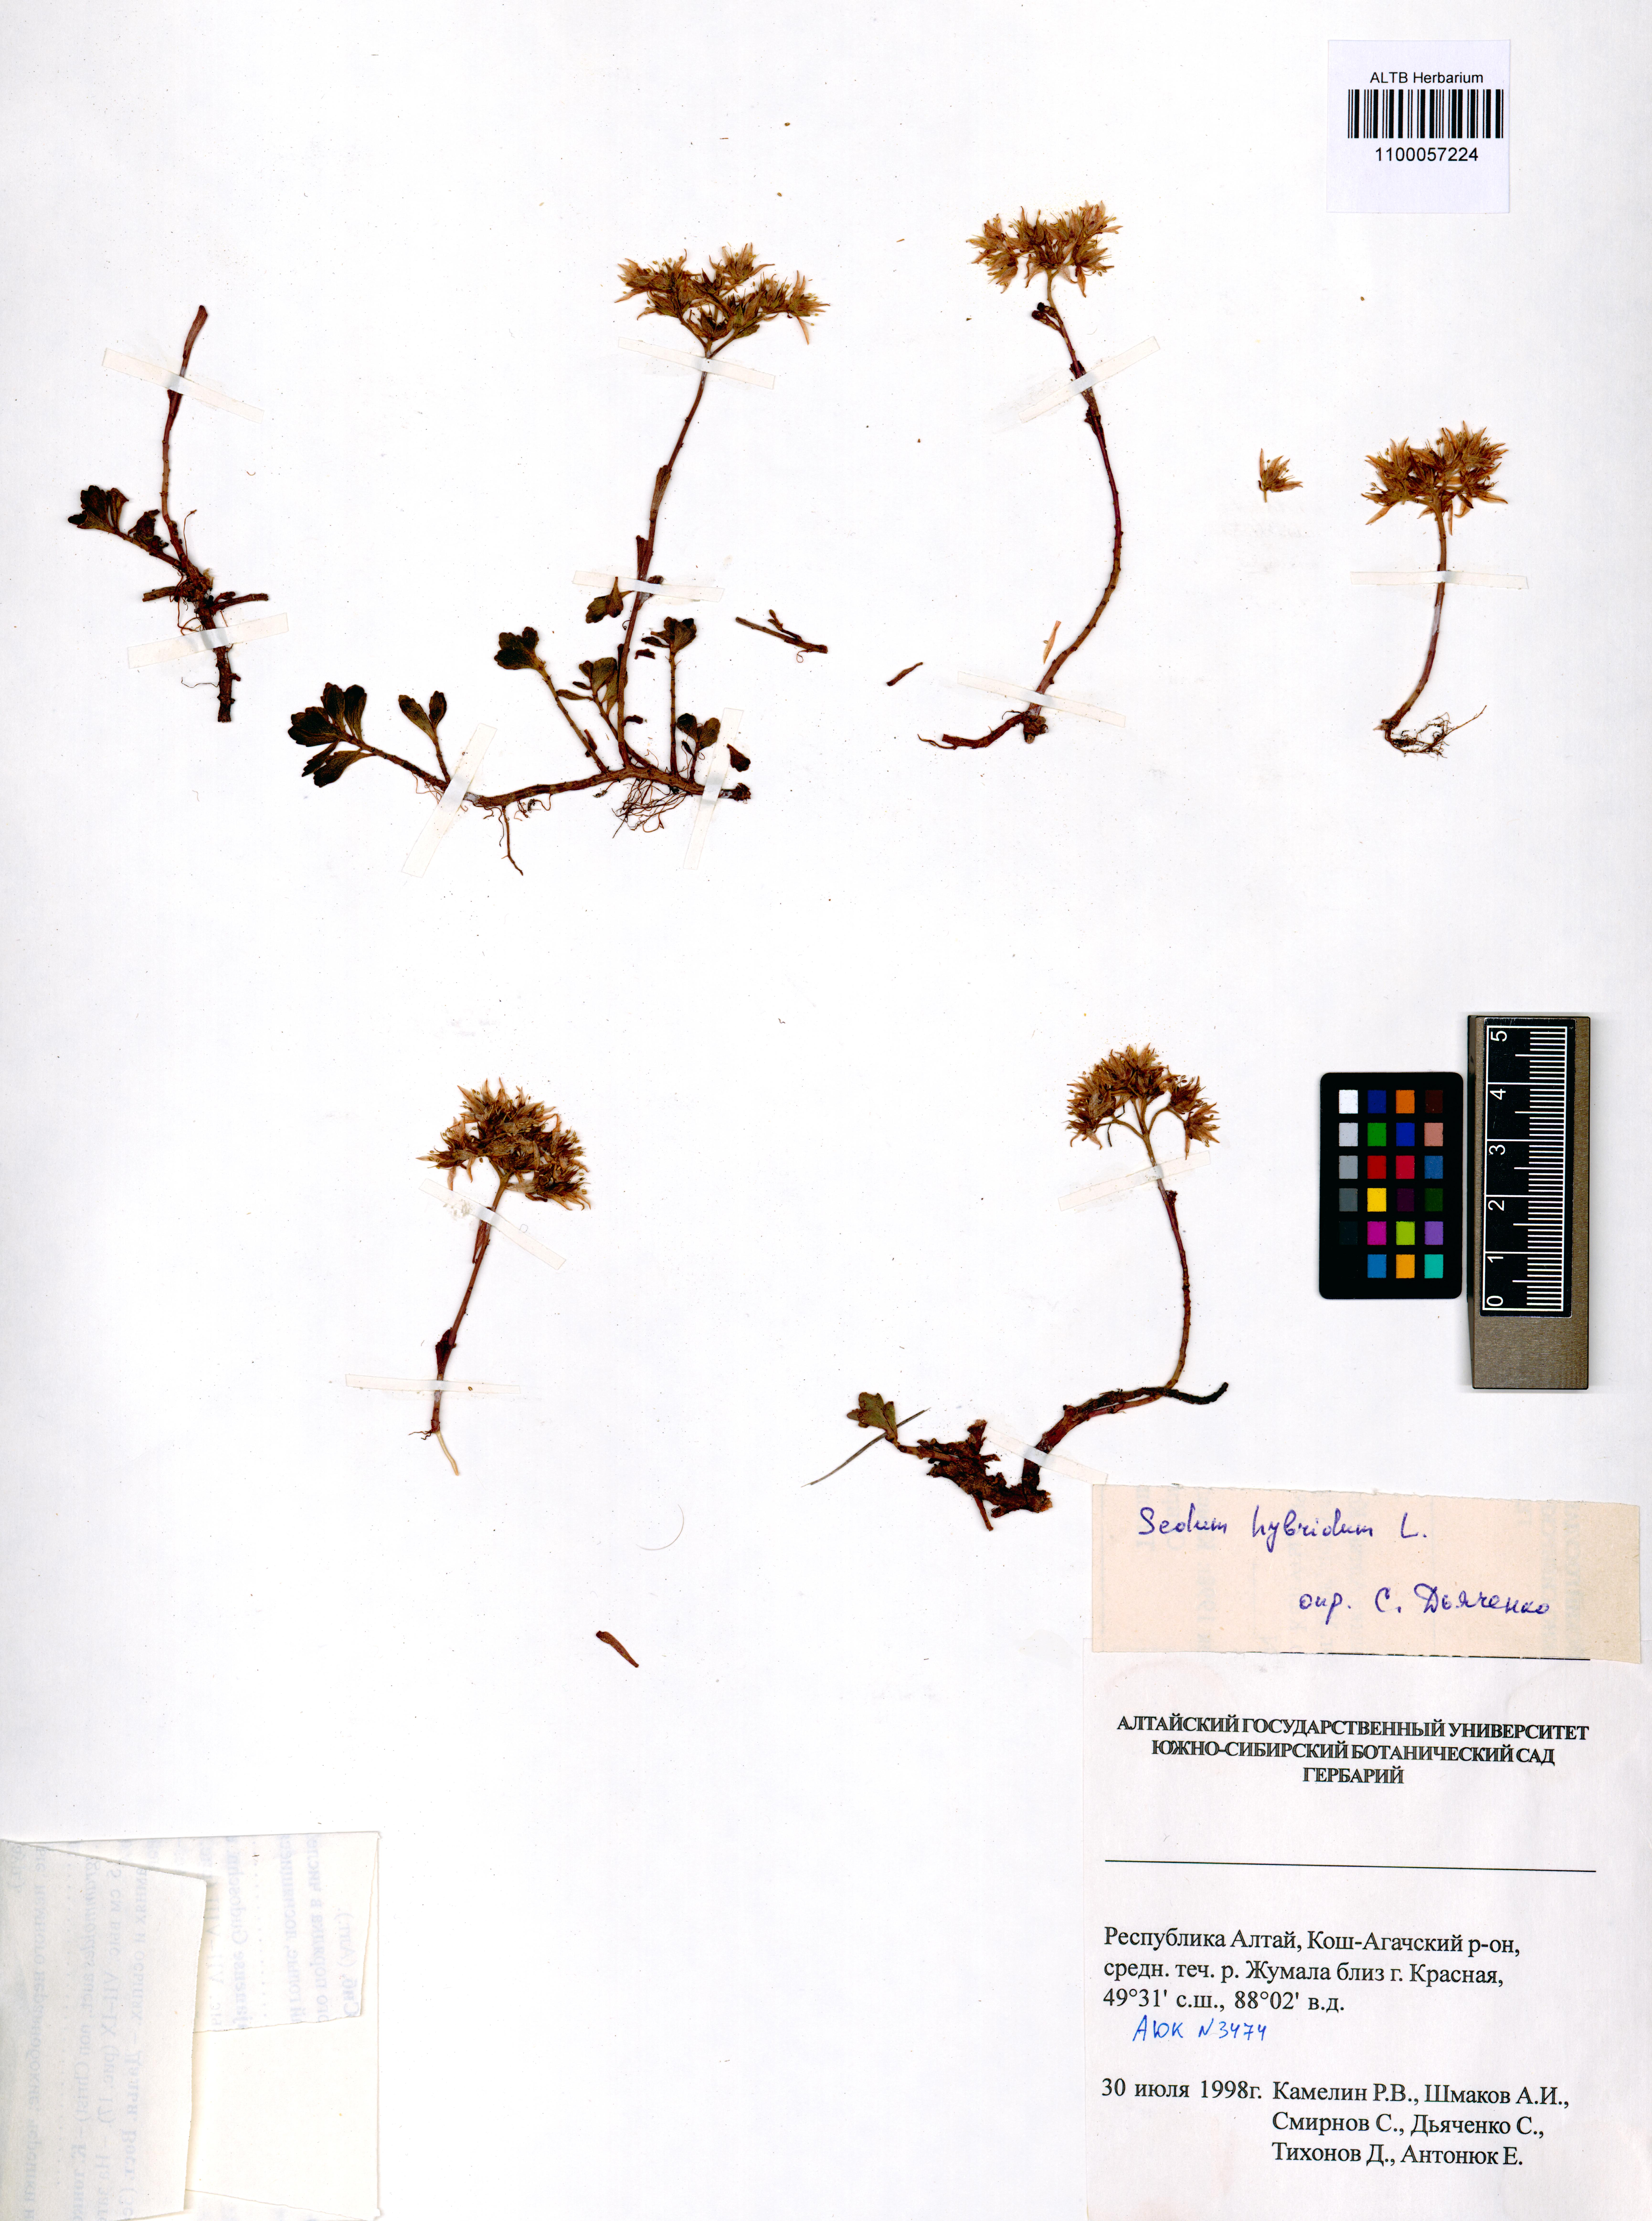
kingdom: Plantae
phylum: Tracheophyta
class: Magnoliopsida
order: Saxifragales
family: Crassulaceae
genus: Phedimus
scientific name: Phedimus hybridus
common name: Hybrid stonecrop
